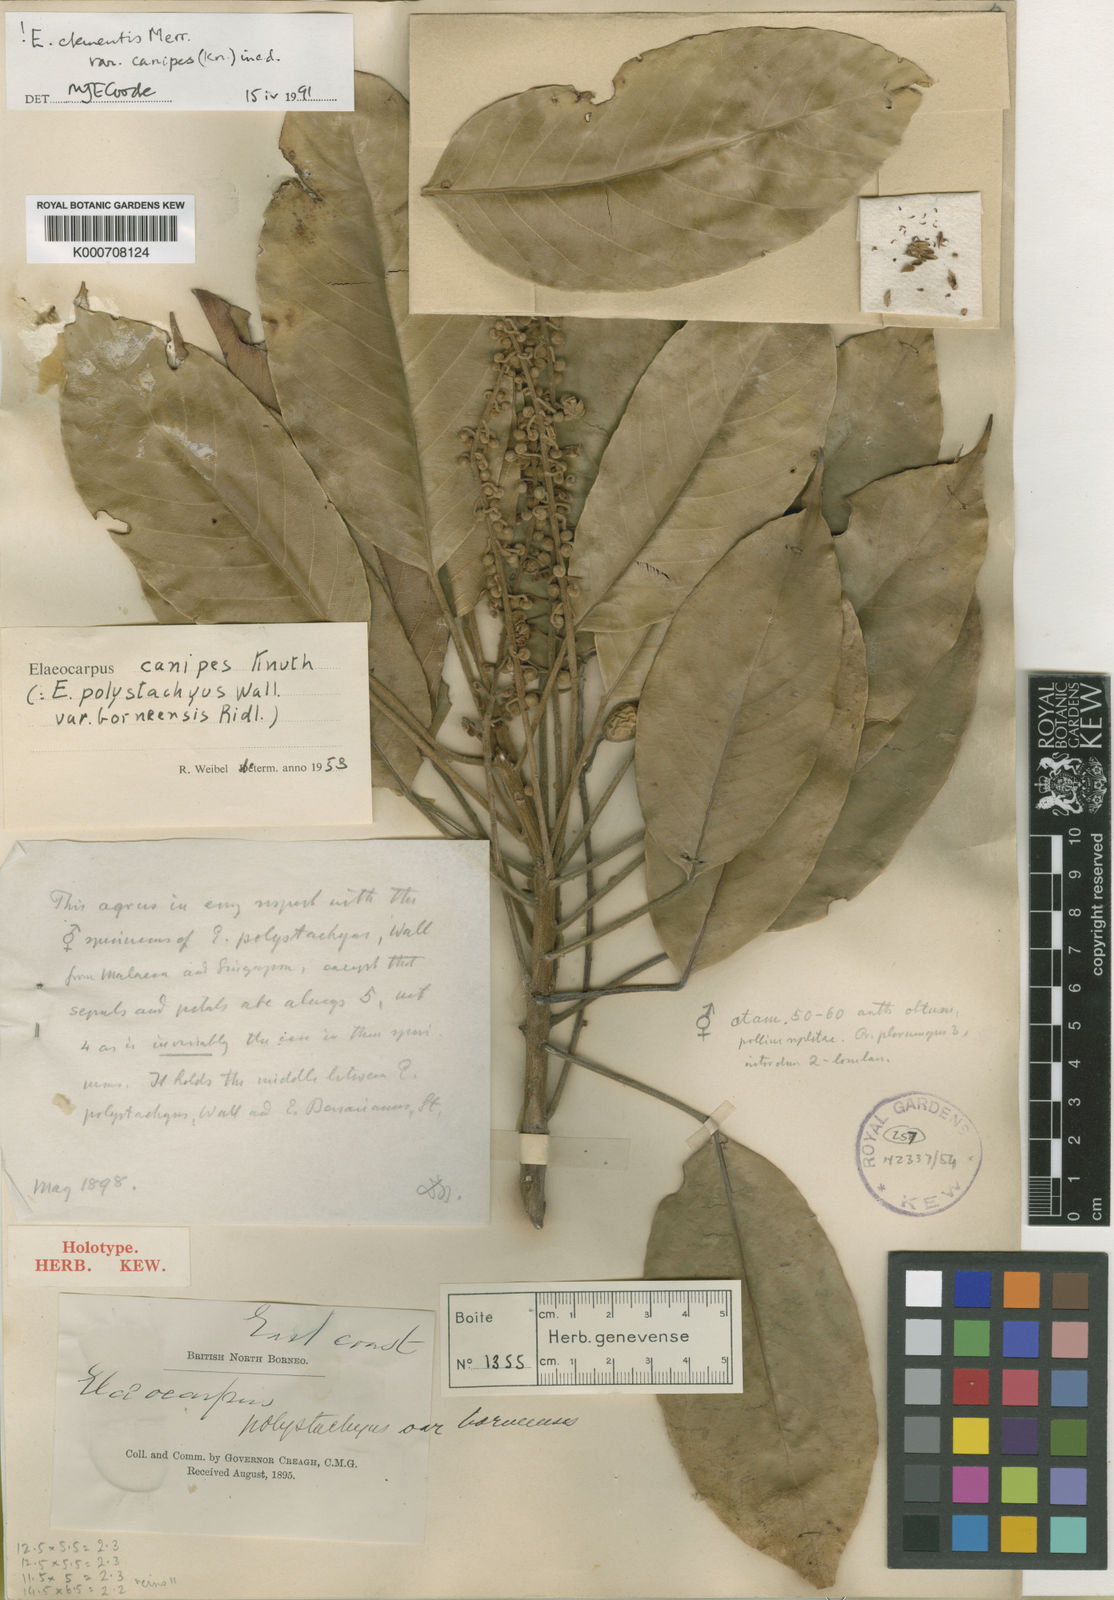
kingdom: Plantae
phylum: Tracheophyta
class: Magnoliopsida
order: Oxalidales
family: Elaeocarpaceae
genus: Elaeocarpus
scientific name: Elaeocarpus clementis
